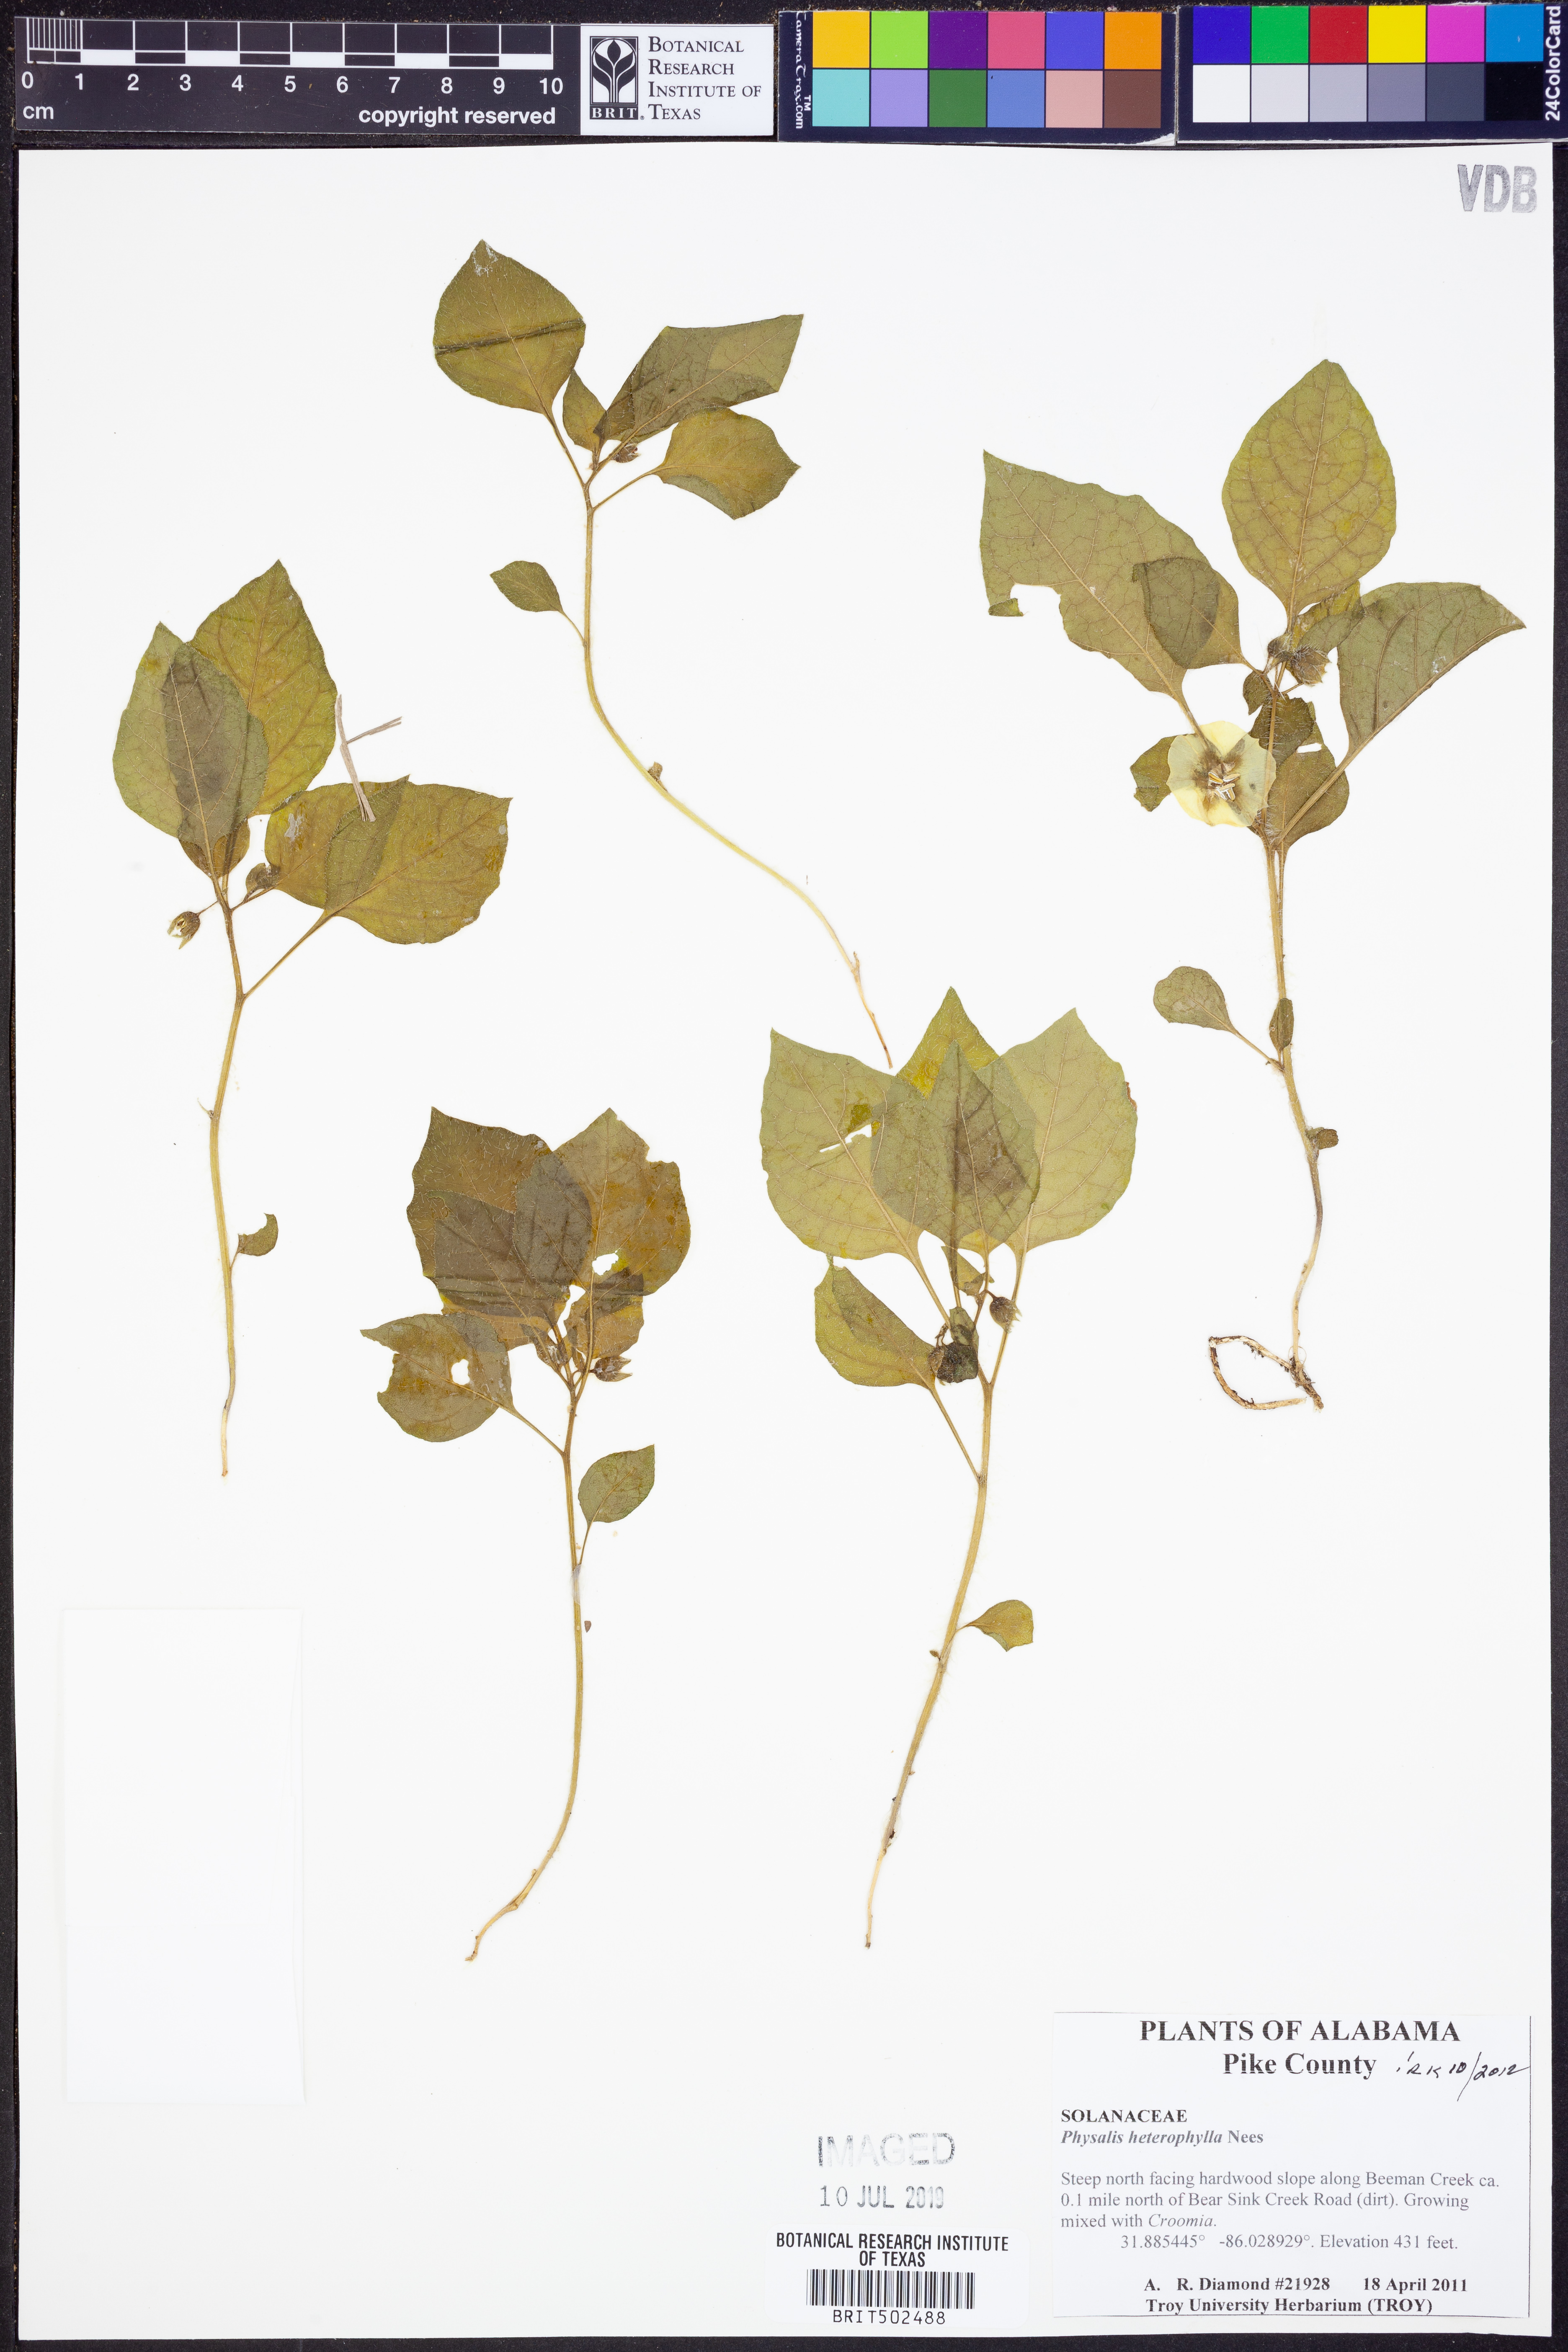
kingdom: Plantae
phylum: Tracheophyta
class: Magnoliopsida
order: Solanales
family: Solanaceae
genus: Physalis
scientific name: Physalis heterophylla
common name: Clammy ground-cherry
